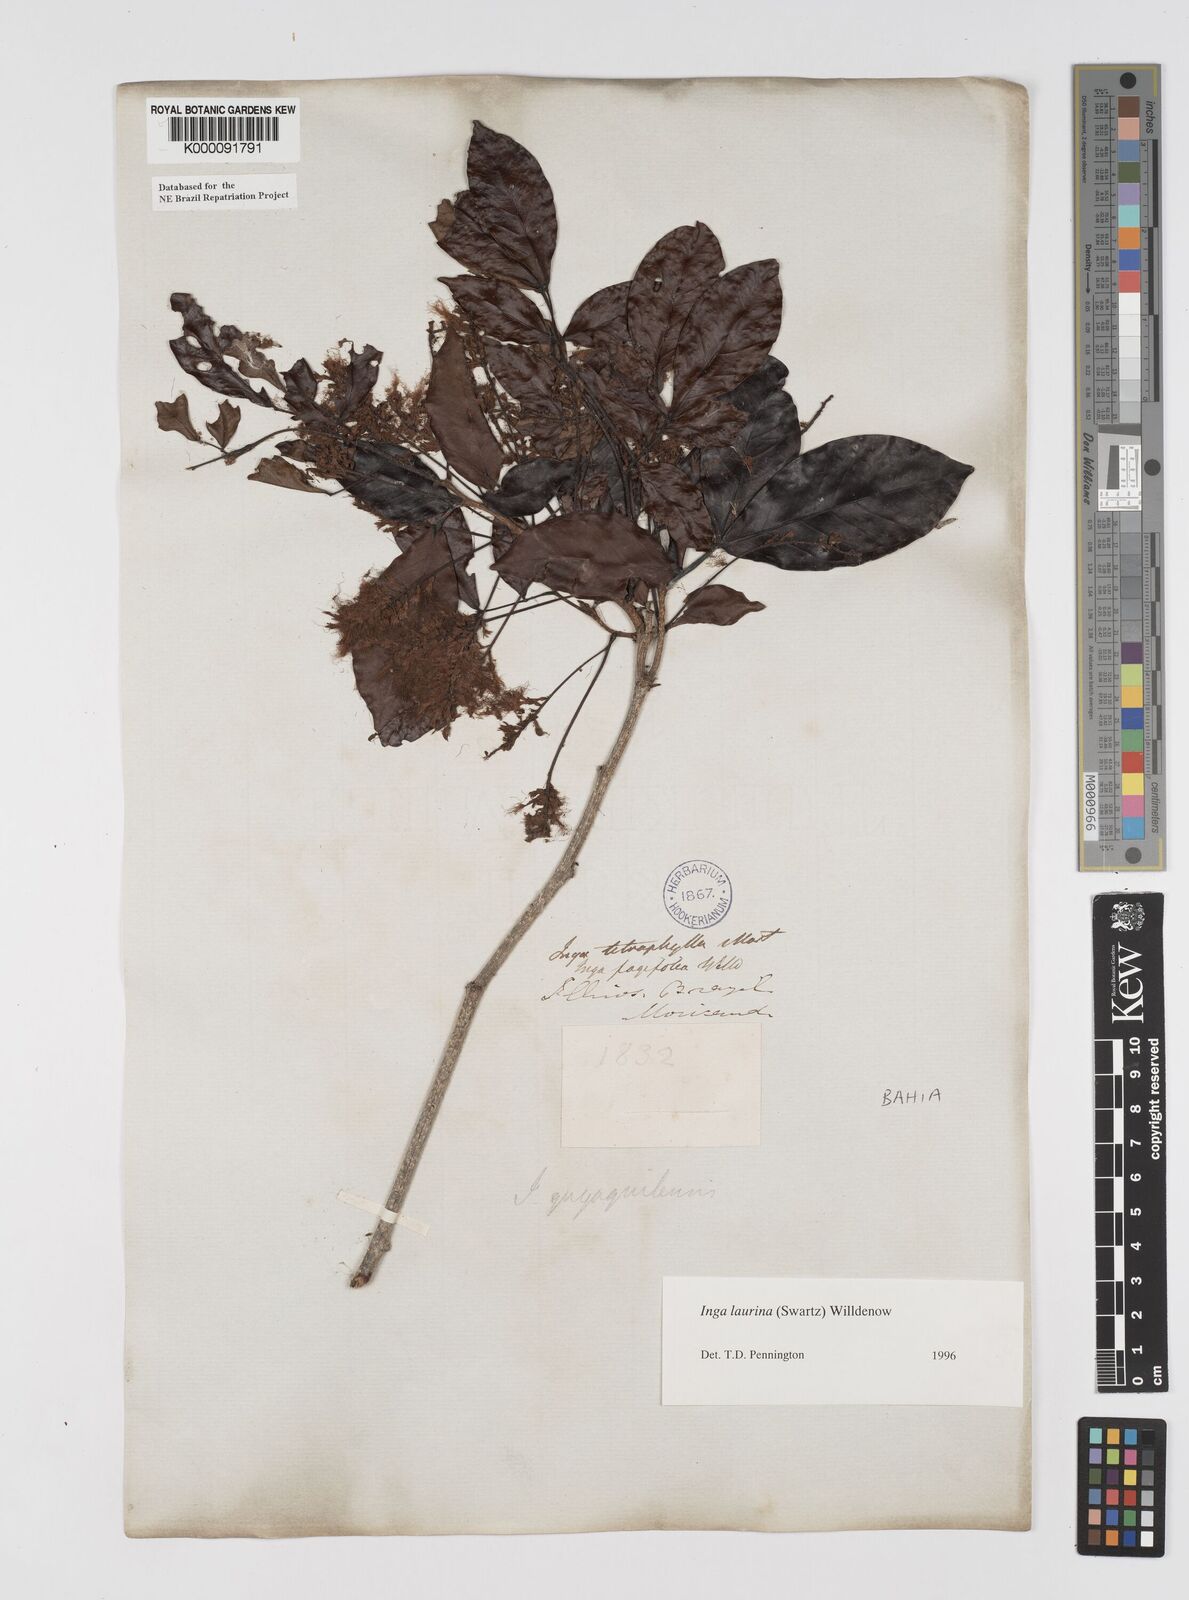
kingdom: Plantae
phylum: Tracheophyta
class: Magnoliopsida
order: Fabales
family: Fabaceae
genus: Inga
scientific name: Inga laurina
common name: Red wood
